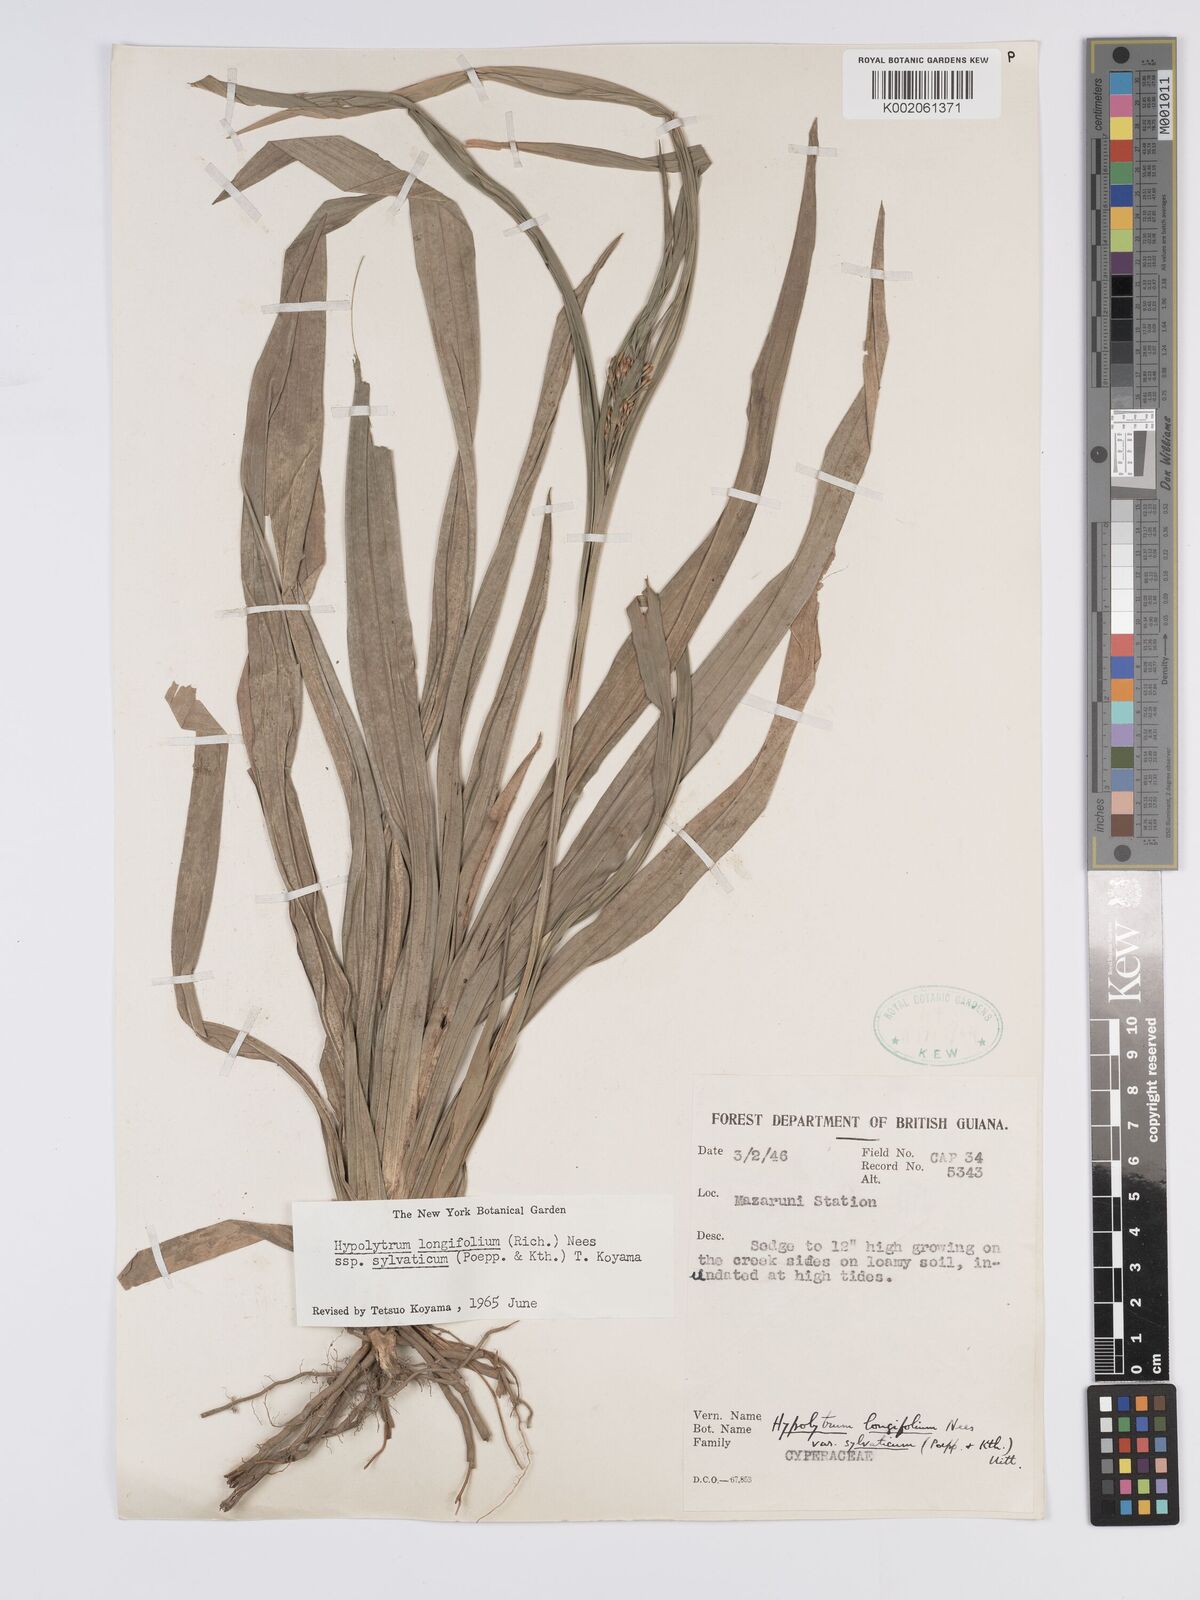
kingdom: Plantae
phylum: Tracheophyta
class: Liliopsida
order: Poales
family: Cyperaceae
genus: Hypolytrum
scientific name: Hypolytrum longifolium
